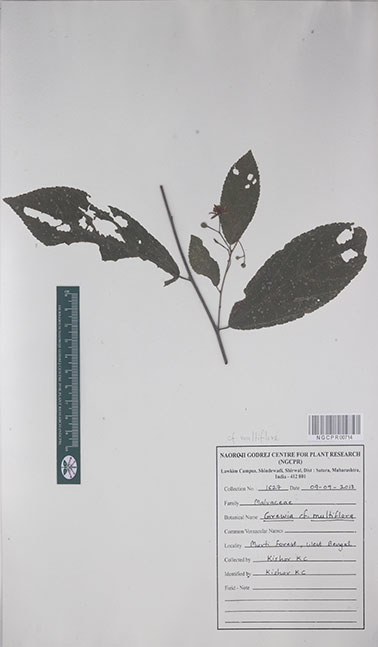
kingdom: Plantae
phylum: Tracheophyta
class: Magnoliopsida
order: Malvales
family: Malvaceae
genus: Grewia
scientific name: Grewia multiflora
